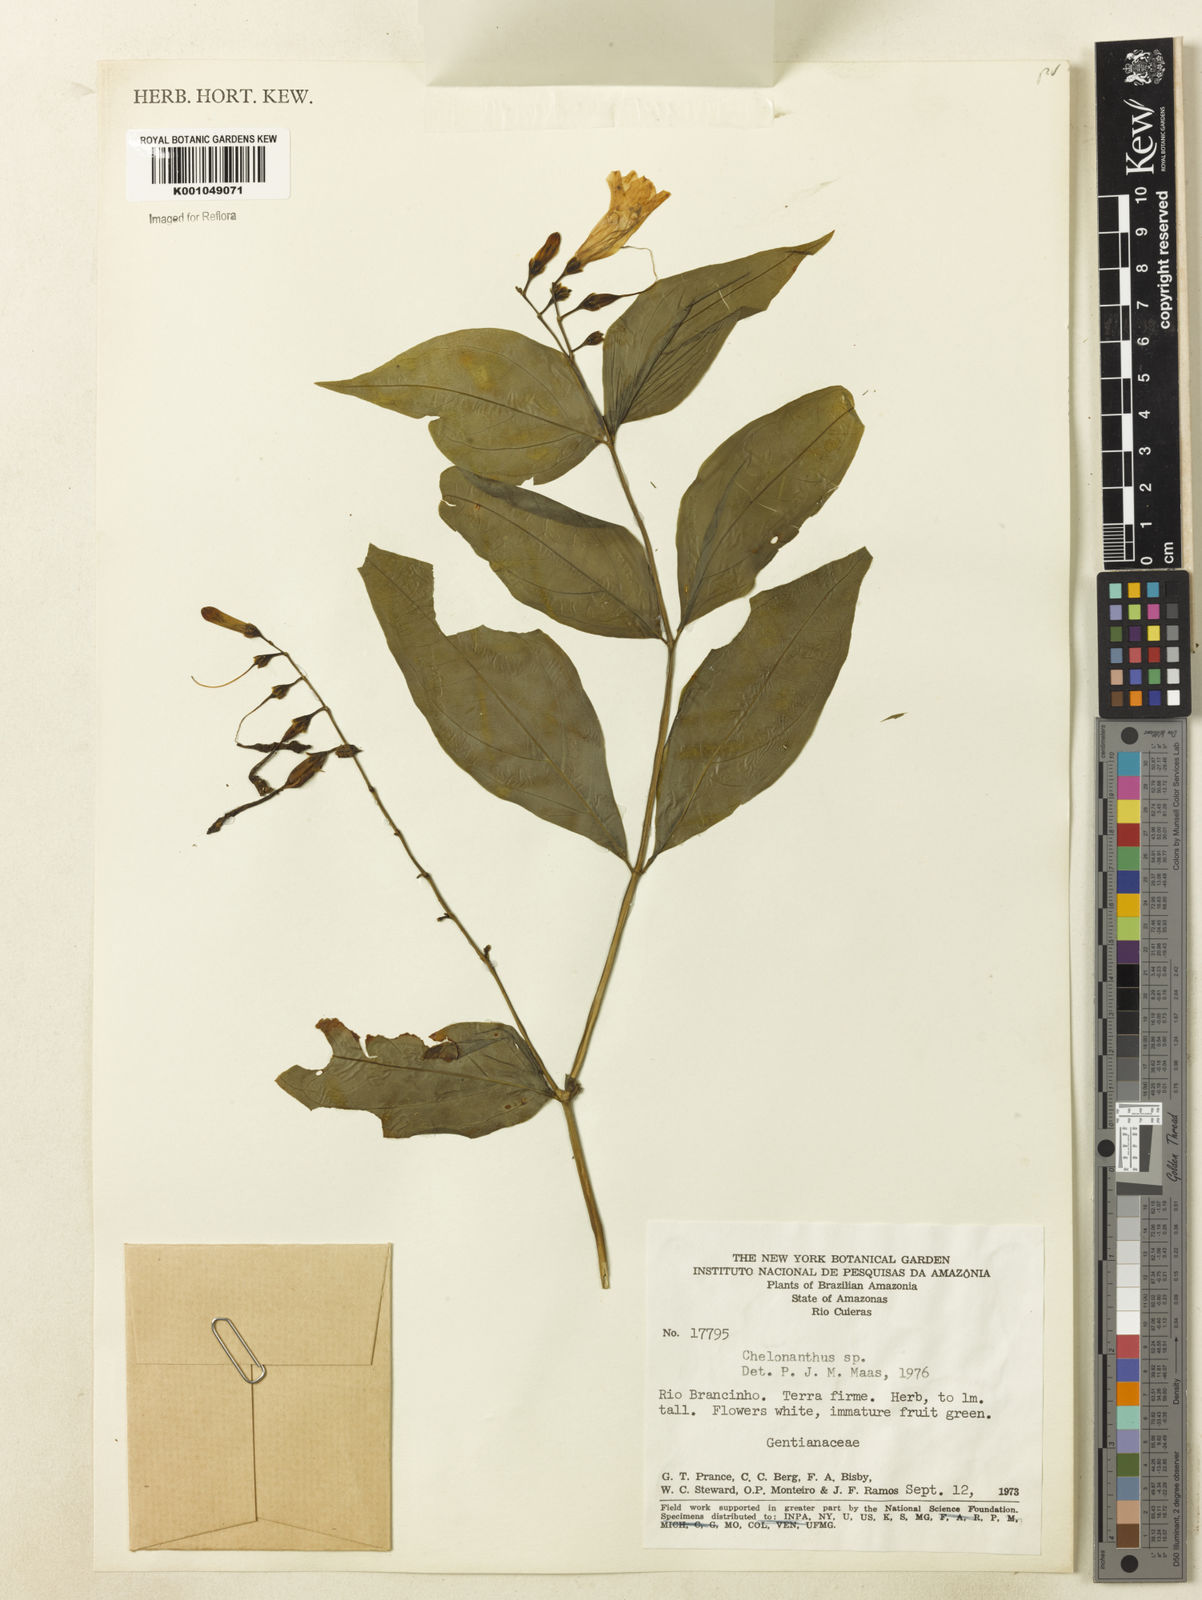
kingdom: Plantae
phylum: Tracheophyta
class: Magnoliopsida
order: Gentianales
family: Gentianaceae
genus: Chelonanthus
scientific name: Chelonanthus
